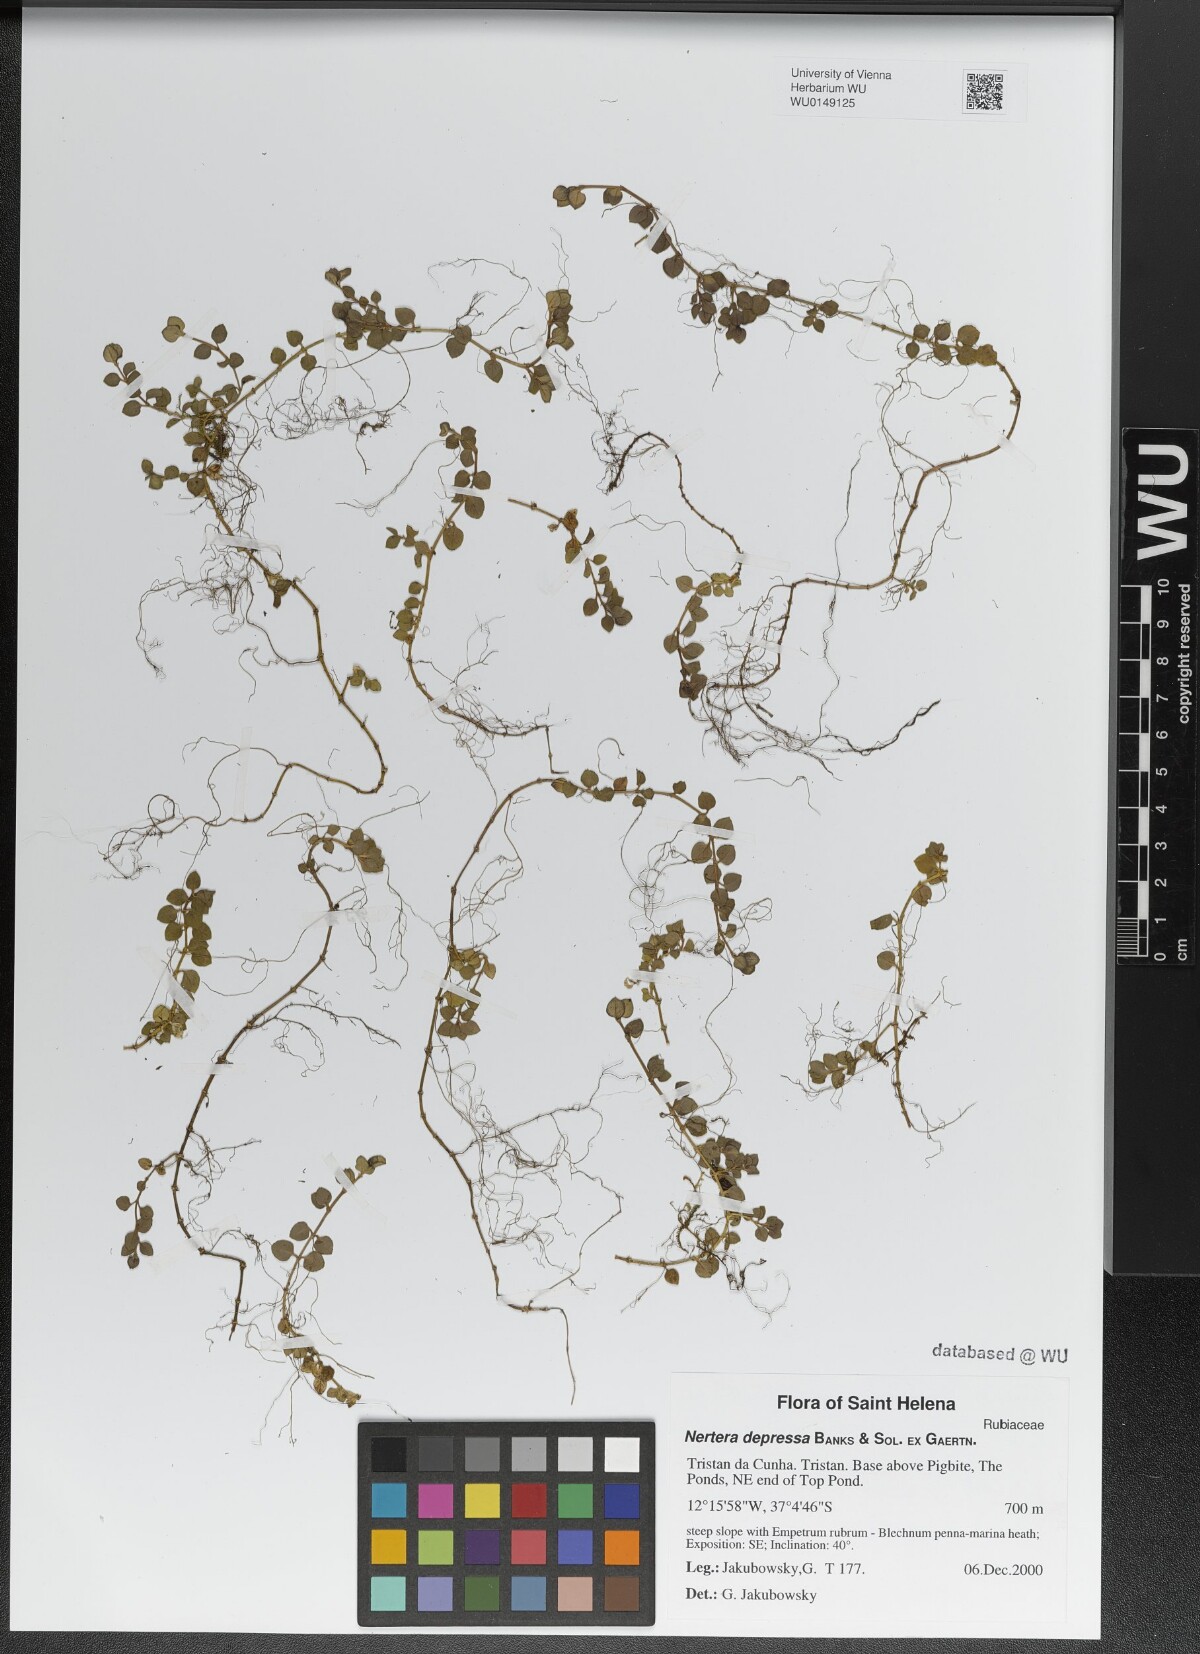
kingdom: Plantae
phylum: Tracheophyta
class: Magnoliopsida
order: Gentianales
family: Rubiaceae
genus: Nertera
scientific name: Nertera granadensis
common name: Beadplant
